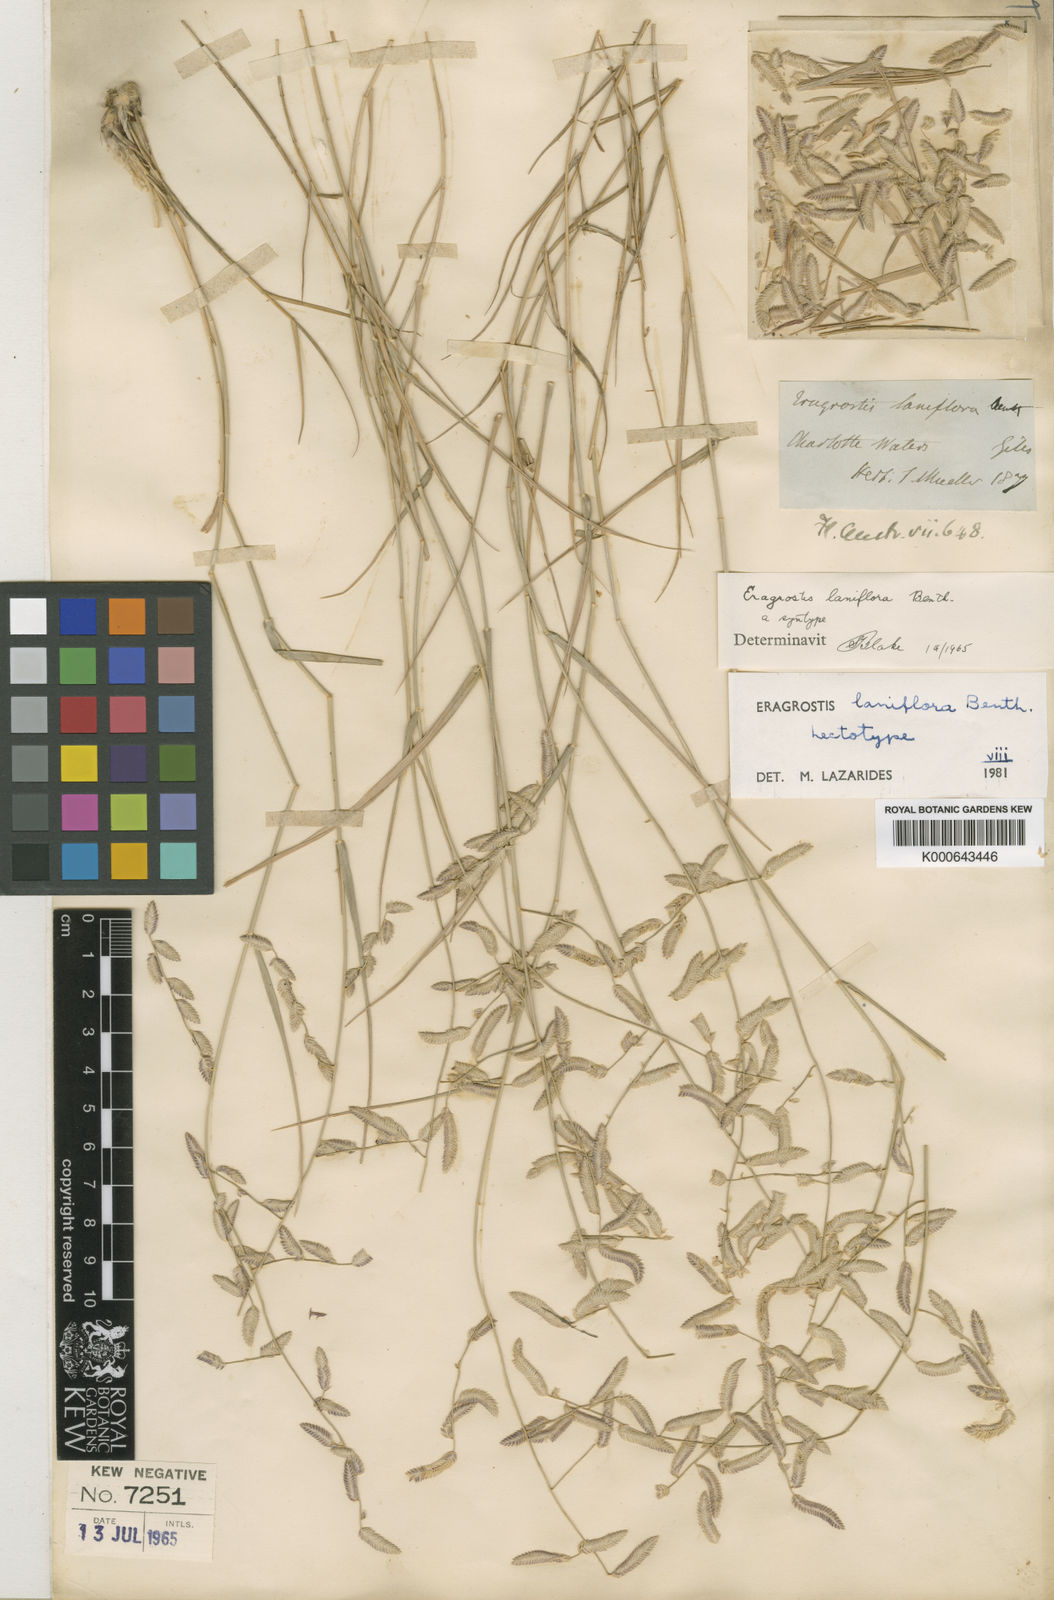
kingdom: Plantae
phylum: Tracheophyta
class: Liliopsida
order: Poales
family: Poaceae
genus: Eragrostis
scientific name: Eragrostis laniflora
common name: Woolly-flower lovegrass
